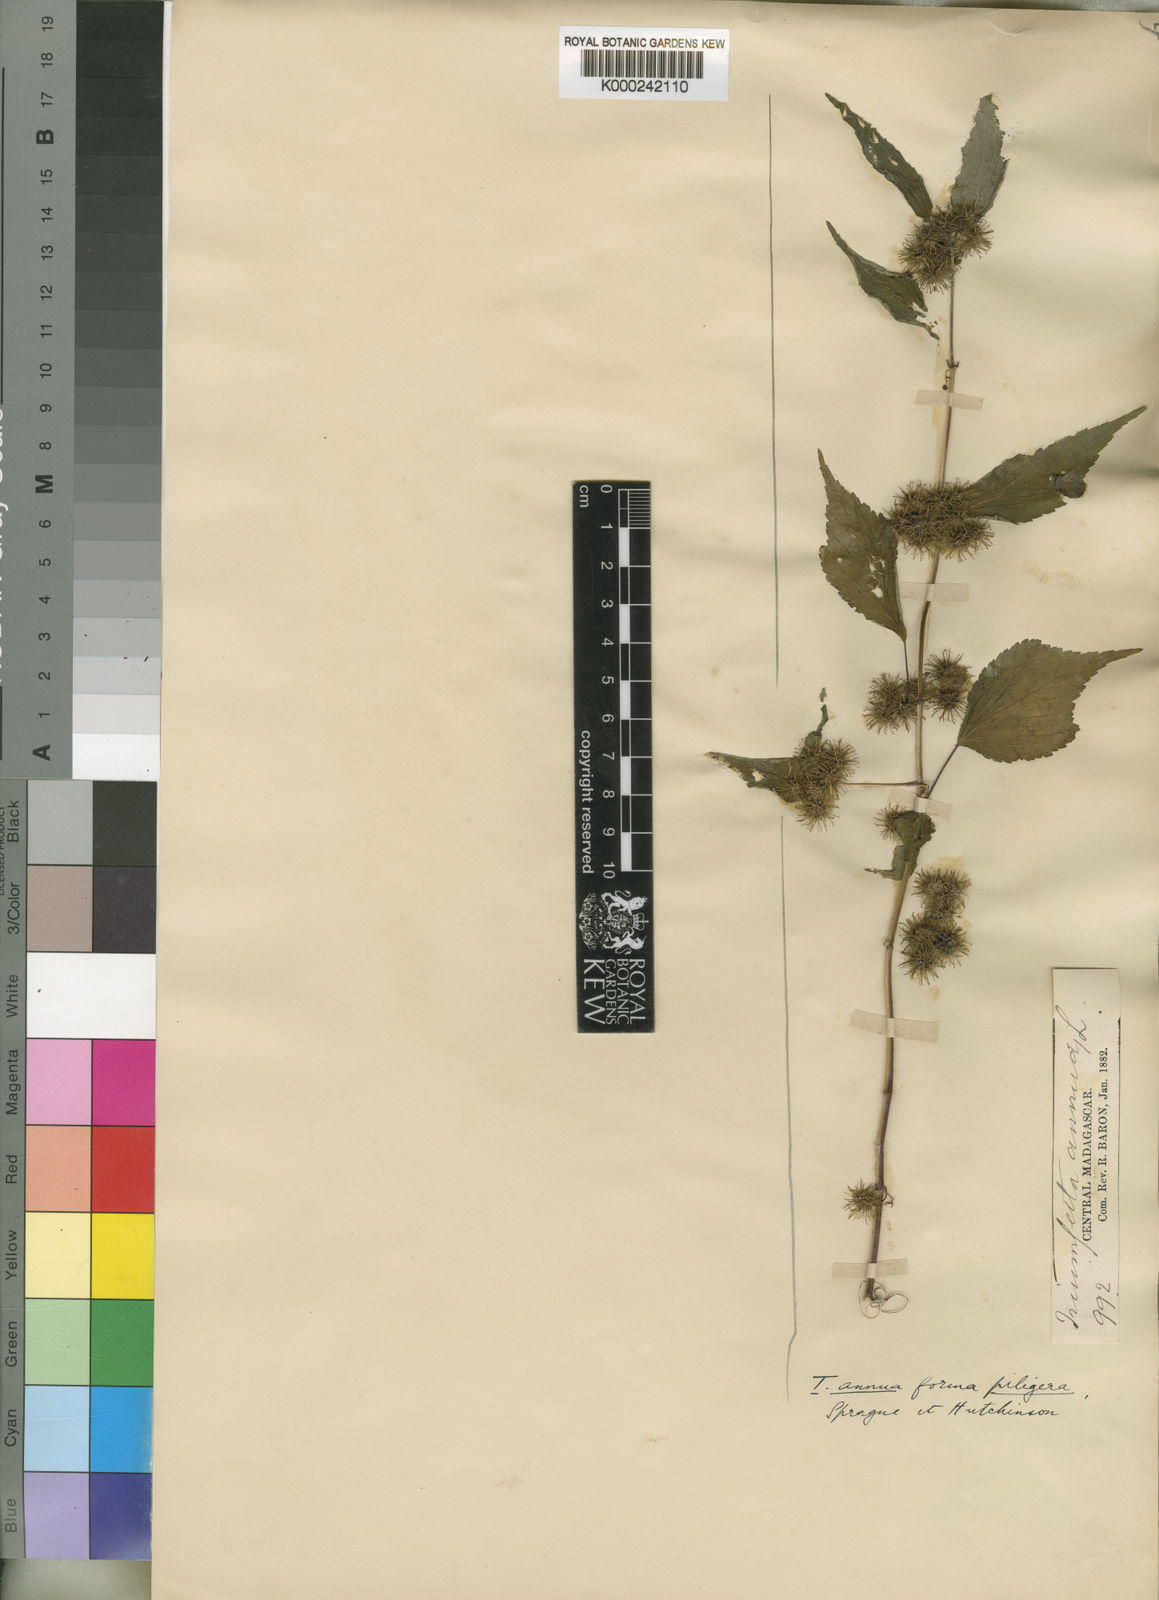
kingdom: Plantae
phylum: Tracheophyta
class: Magnoliopsida
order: Malvales
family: Malvaceae
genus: Triumfetta
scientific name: Triumfetta annua
